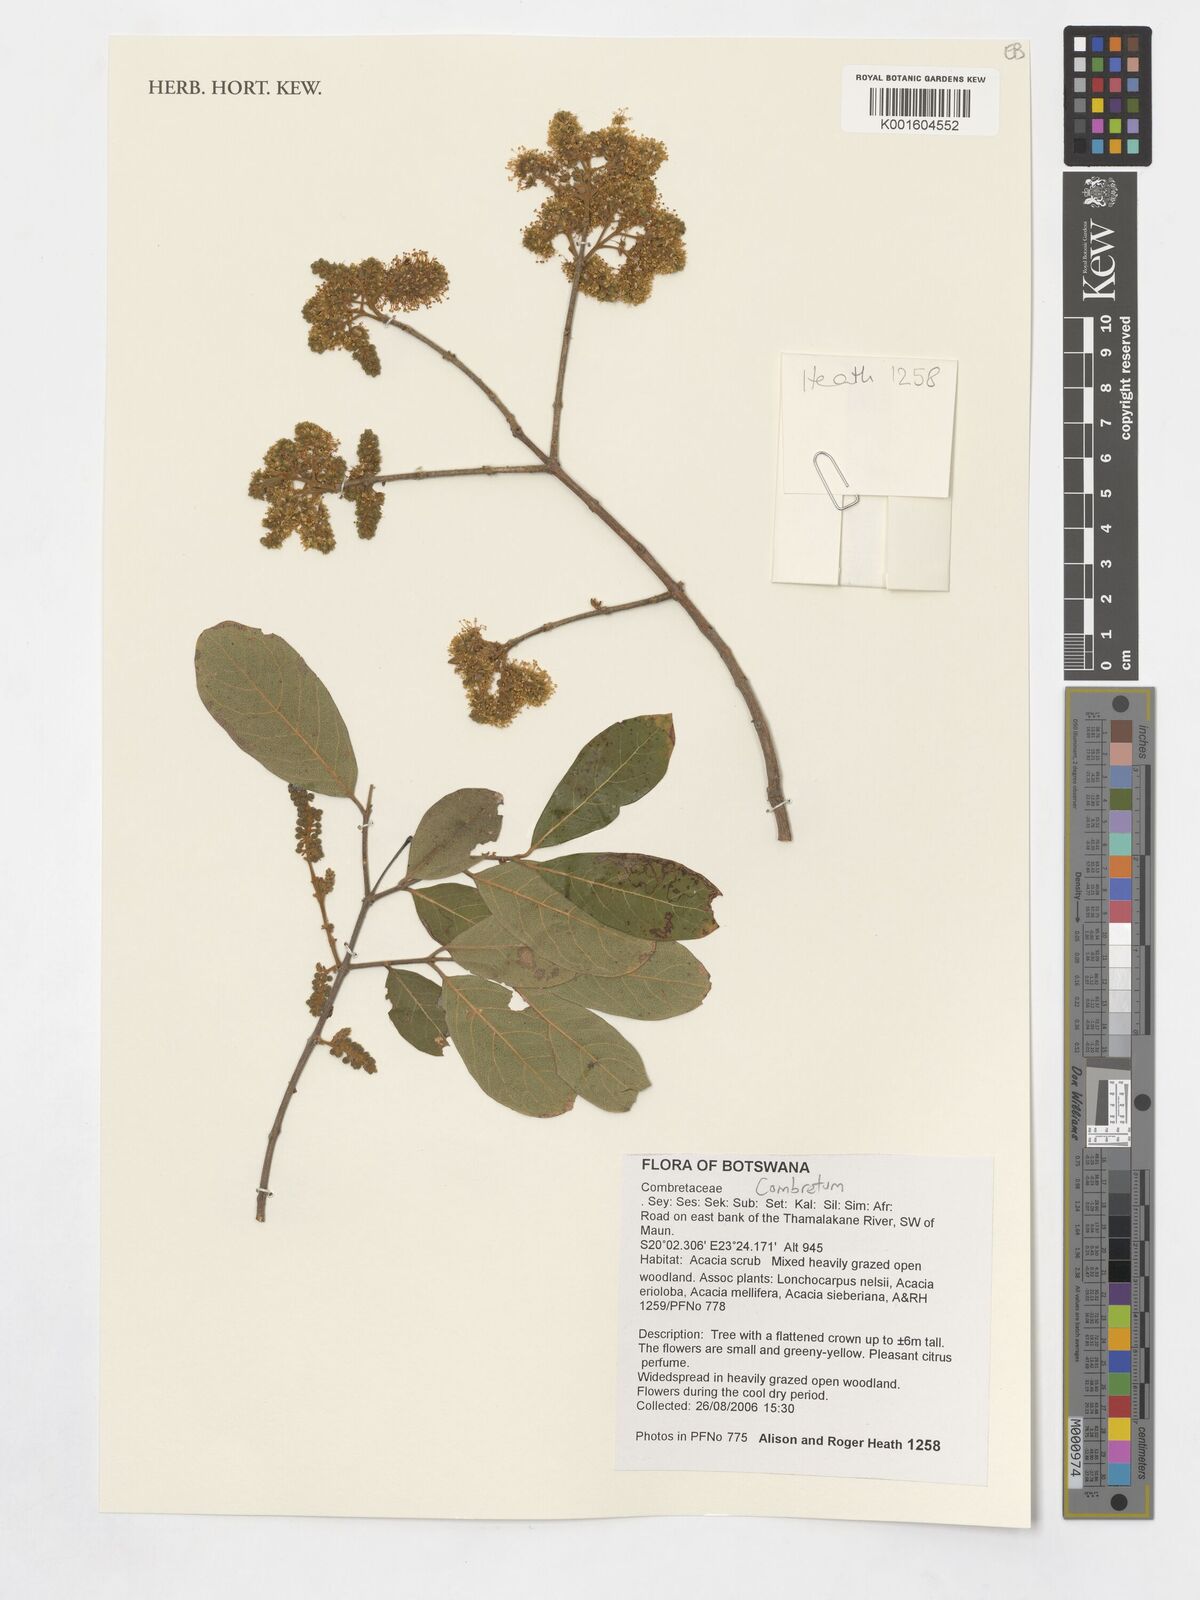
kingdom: Plantae
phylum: Tracheophyta
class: Magnoliopsida
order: Myrtales
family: Combretaceae
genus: Combretum
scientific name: Combretum
